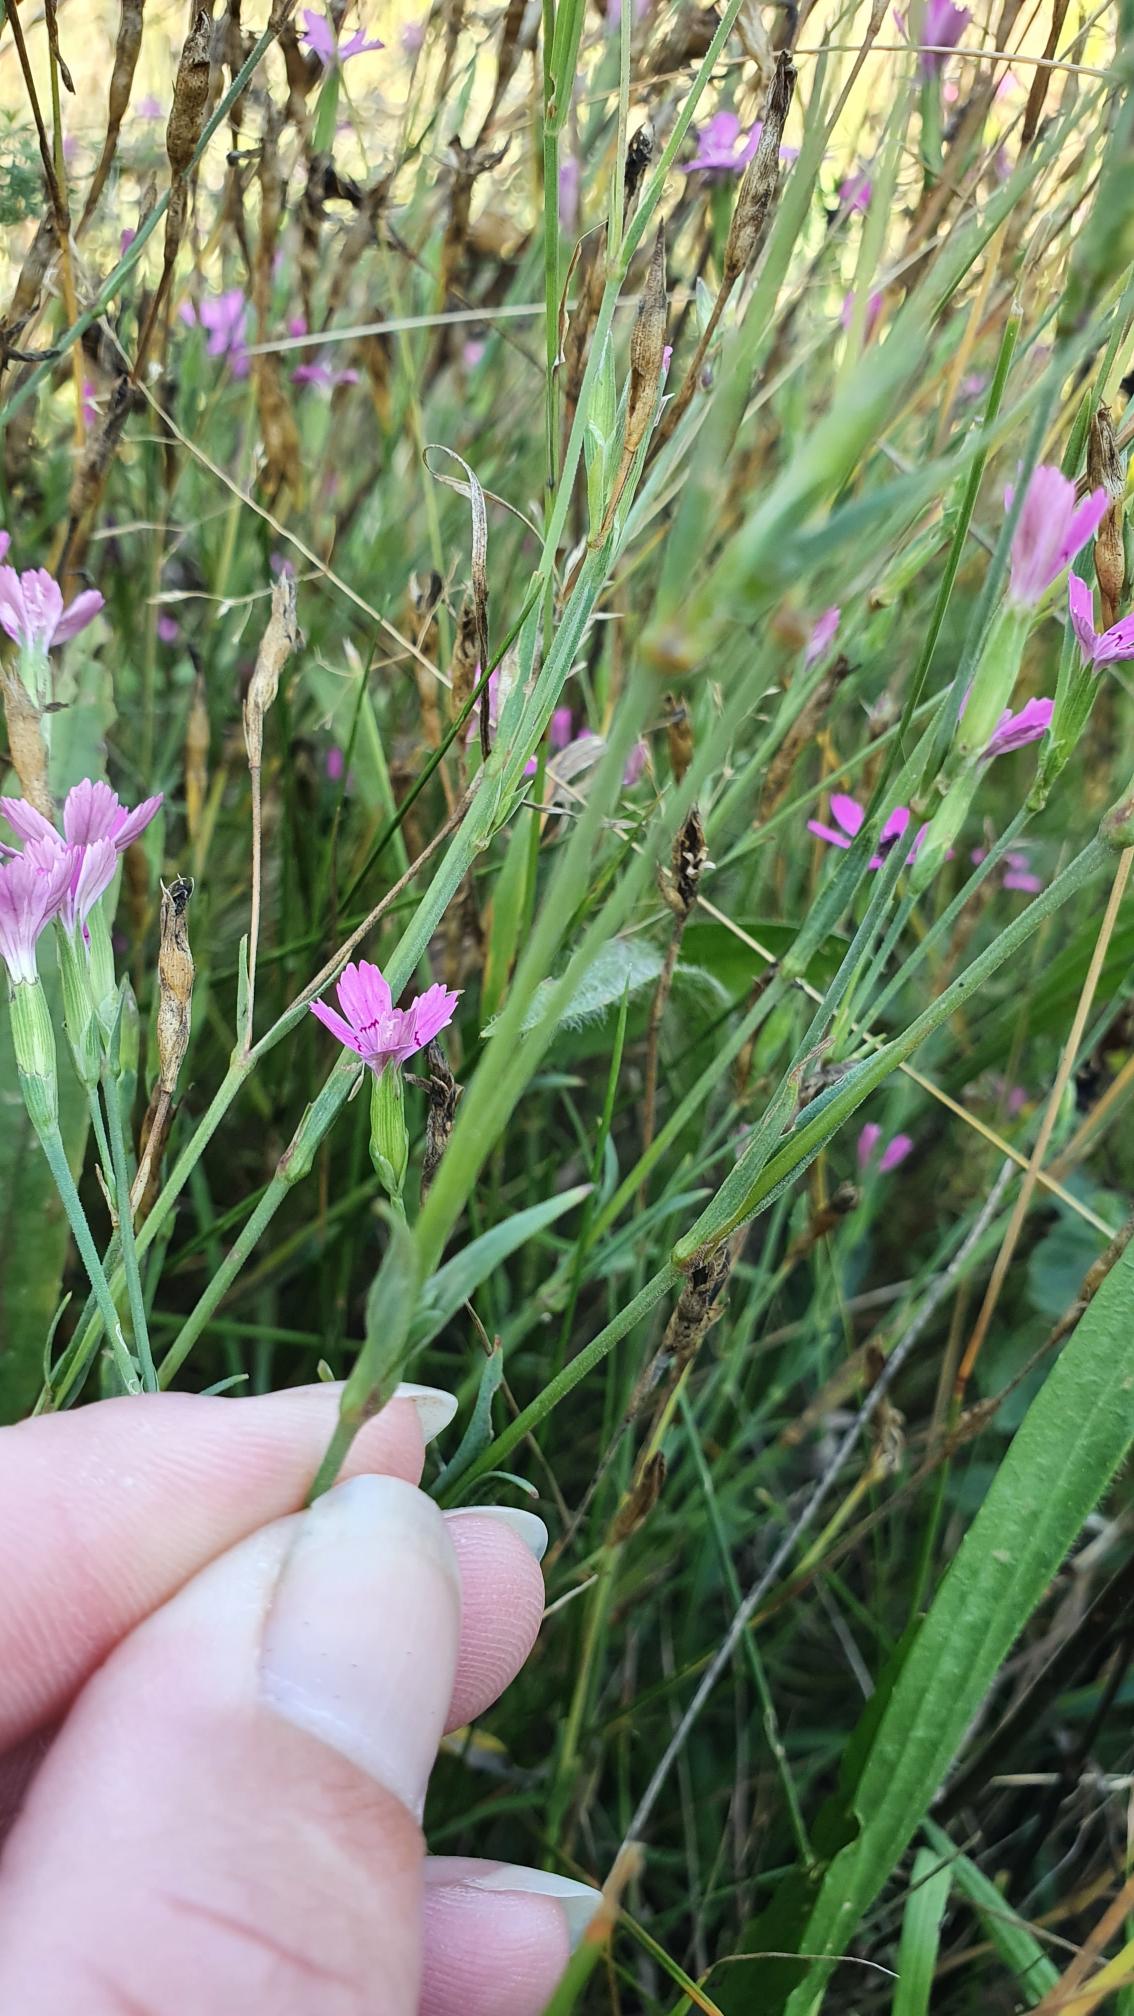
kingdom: Plantae
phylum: Tracheophyta
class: Magnoliopsida
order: Caryophyllales
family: Caryophyllaceae
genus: Dianthus
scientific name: Dianthus deltoides
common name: Bakke-nellike
